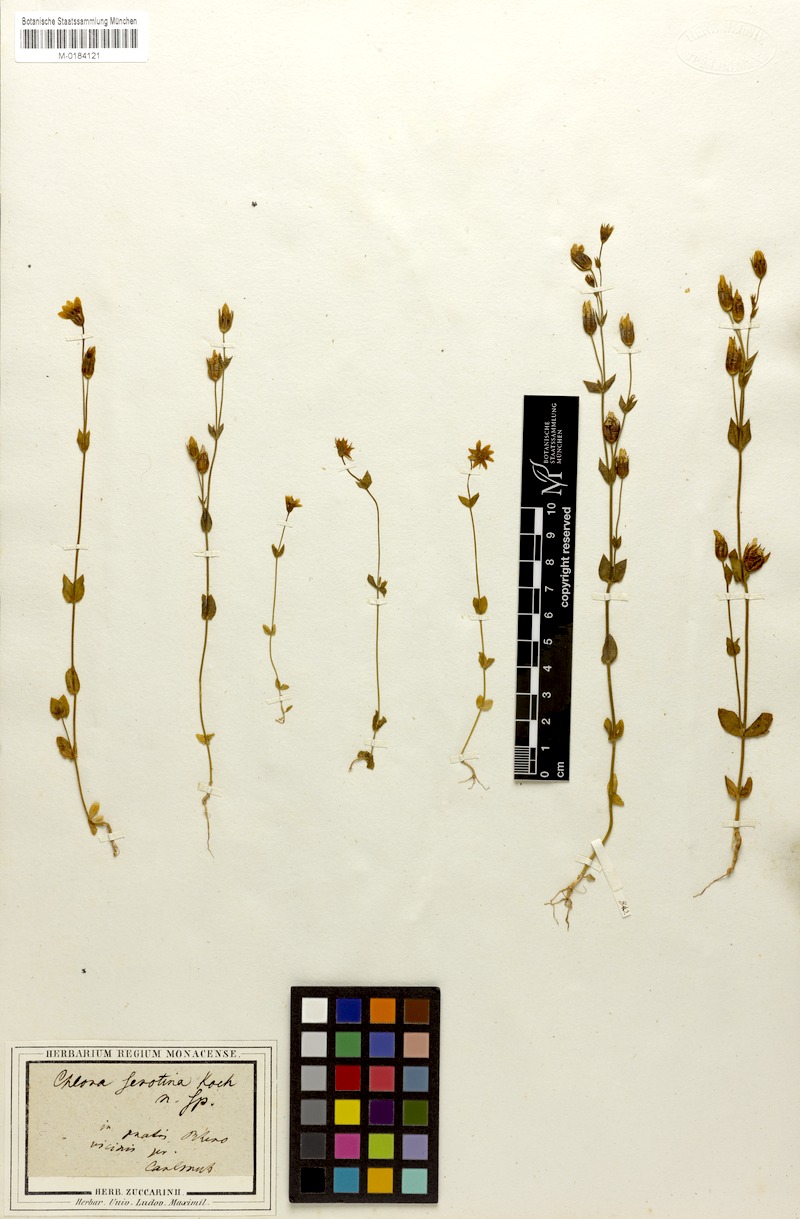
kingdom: Plantae
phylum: Tracheophyta
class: Magnoliopsida
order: Gentianales
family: Gentianaceae
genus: Blackstonia
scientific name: Blackstonia acuminata
